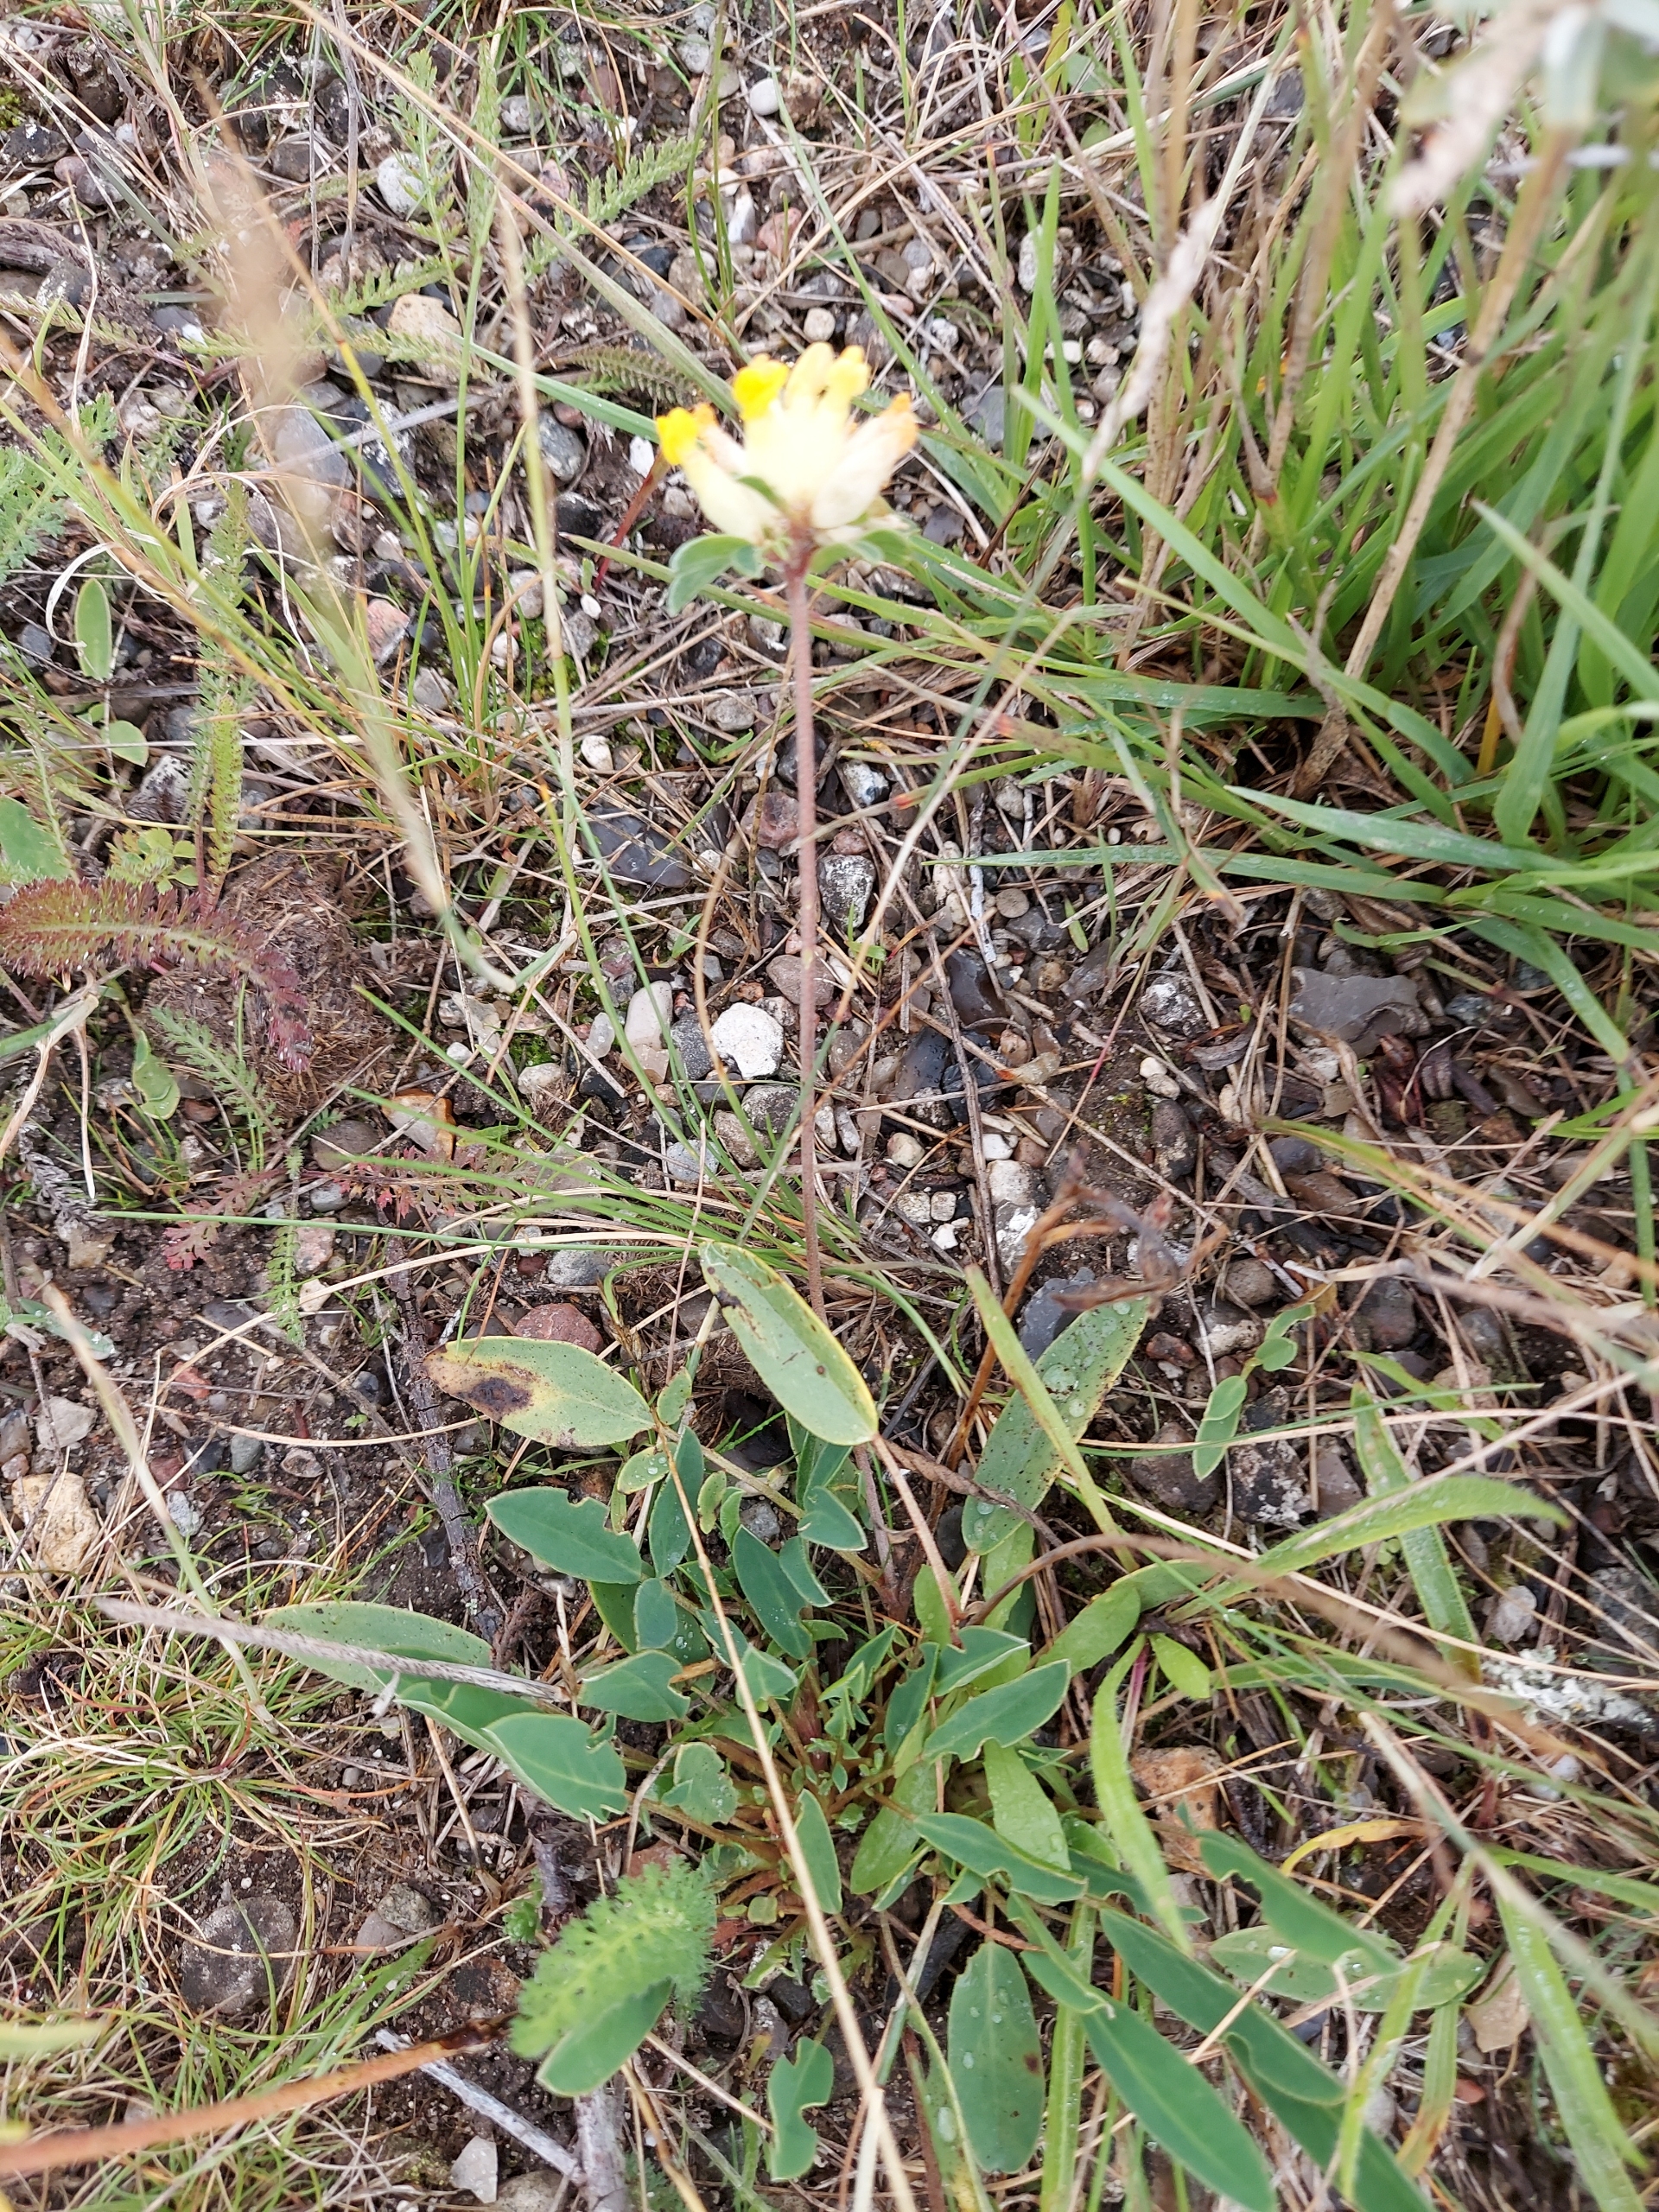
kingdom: Plantae
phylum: Tracheophyta
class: Magnoliopsida
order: Fabales
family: Fabaceae
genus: Anthyllis
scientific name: Anthyllis vulneraria
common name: Rundbælg
